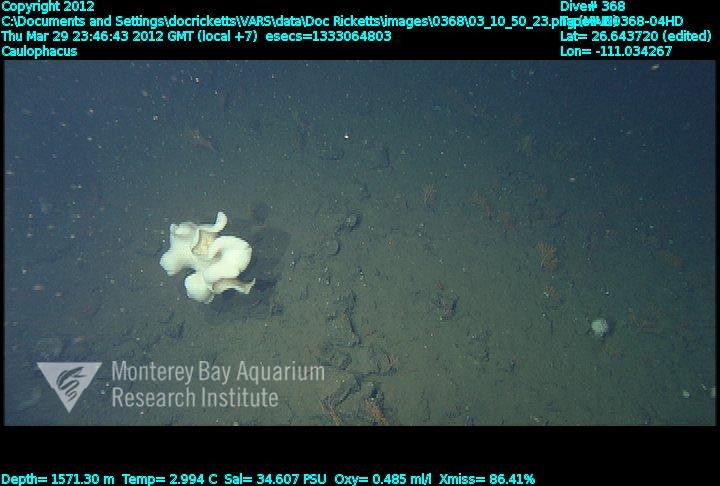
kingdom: Animalia
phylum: Porifera
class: Hexactinellida
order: Lyssacinosida
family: Rossellidae
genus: Caulophacus
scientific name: Caulophacus
